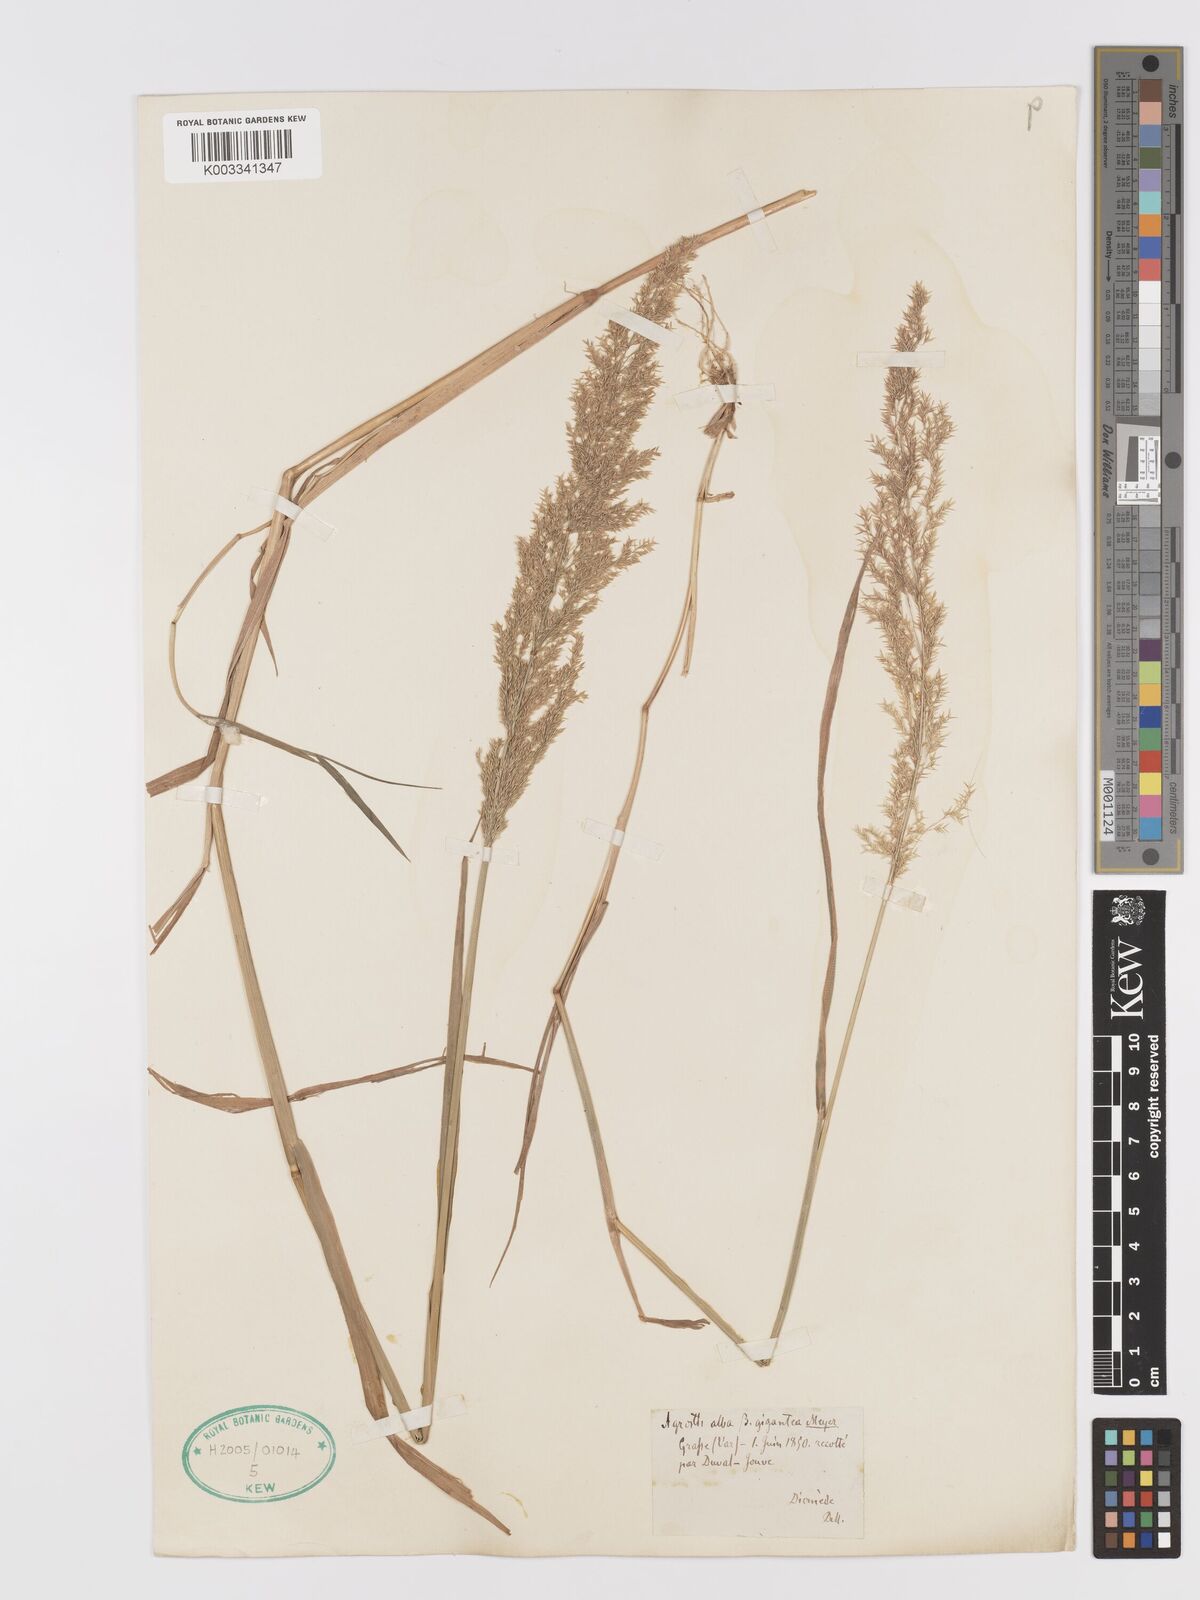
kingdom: Plantae
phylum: Tracheophyta
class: Liliopsida
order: Poales
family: Poaceae
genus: Agrostis
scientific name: Agrostis gigantea
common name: Black bent
